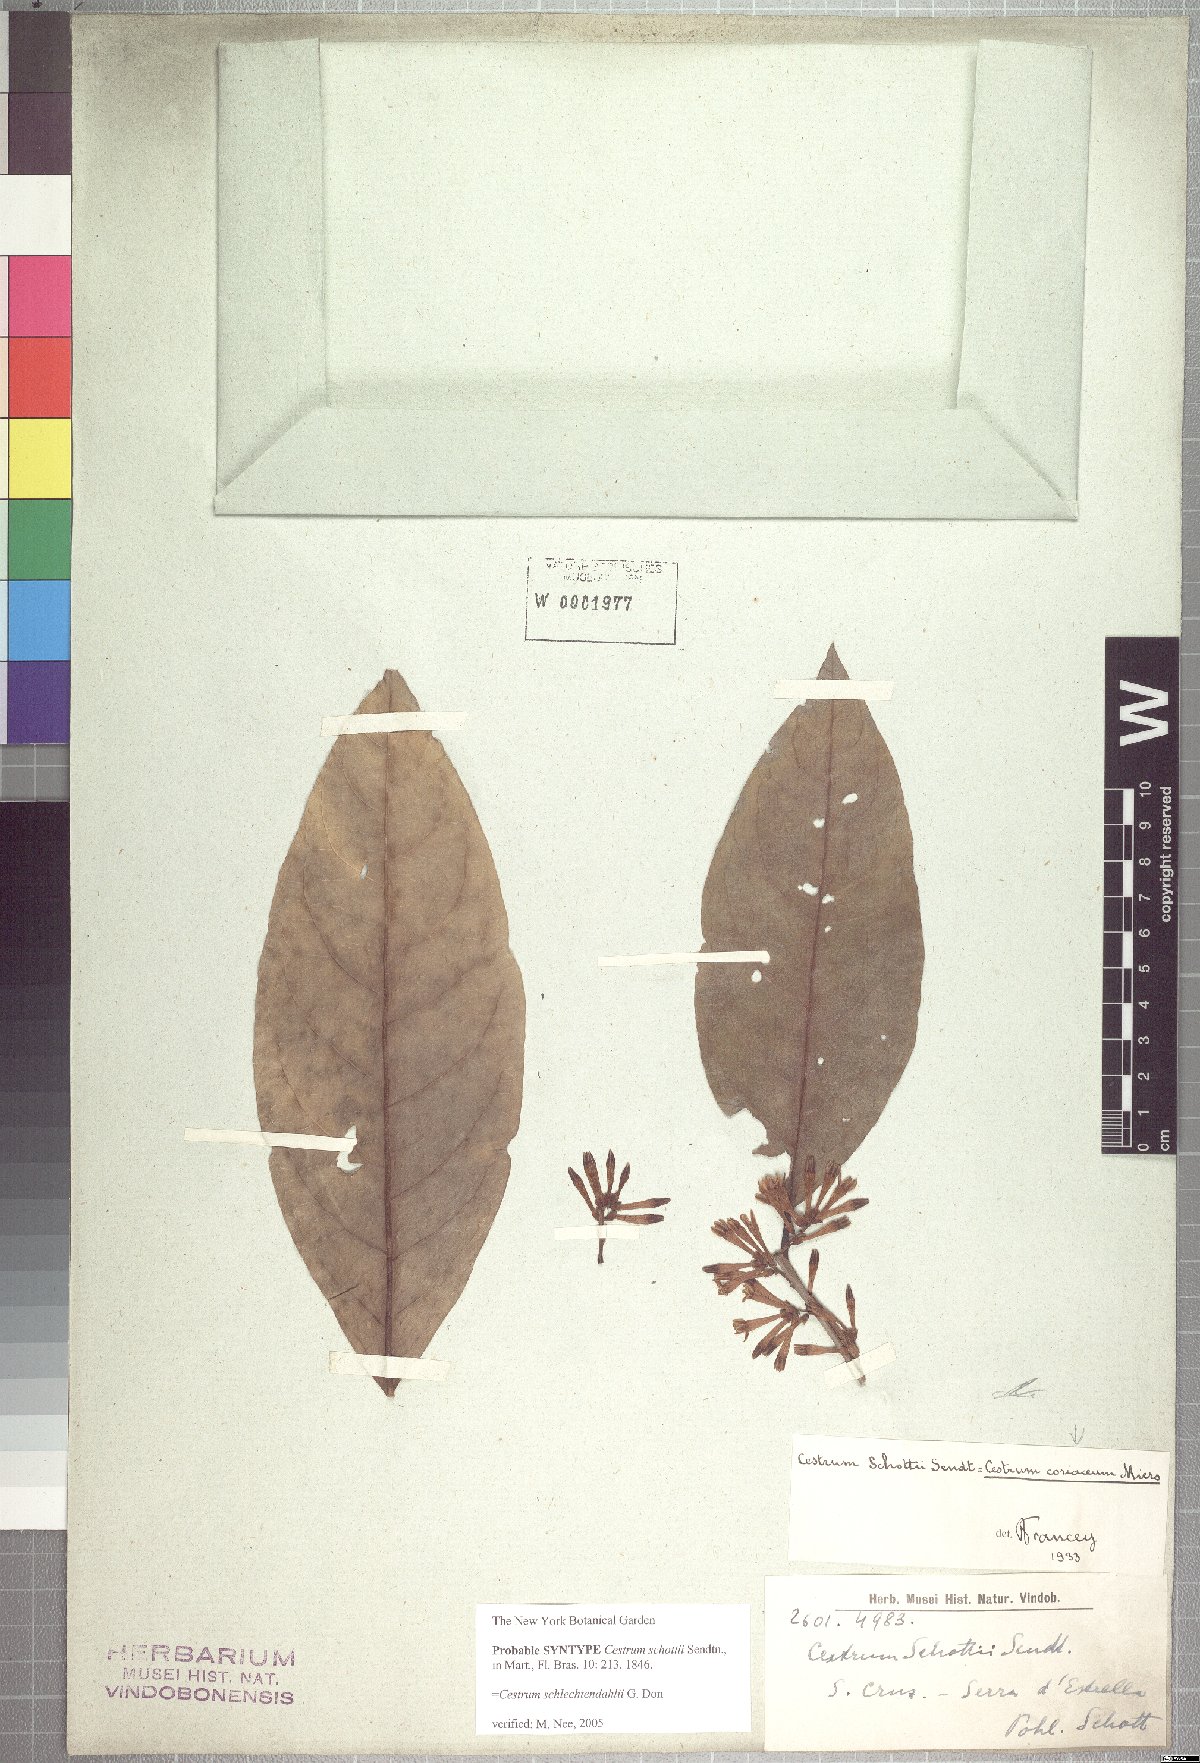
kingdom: Plantae
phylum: Tracheophyta
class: Magnoliopsida
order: Solanales
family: Solanaceae
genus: Cestrum
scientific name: Cestrum coriaceum
